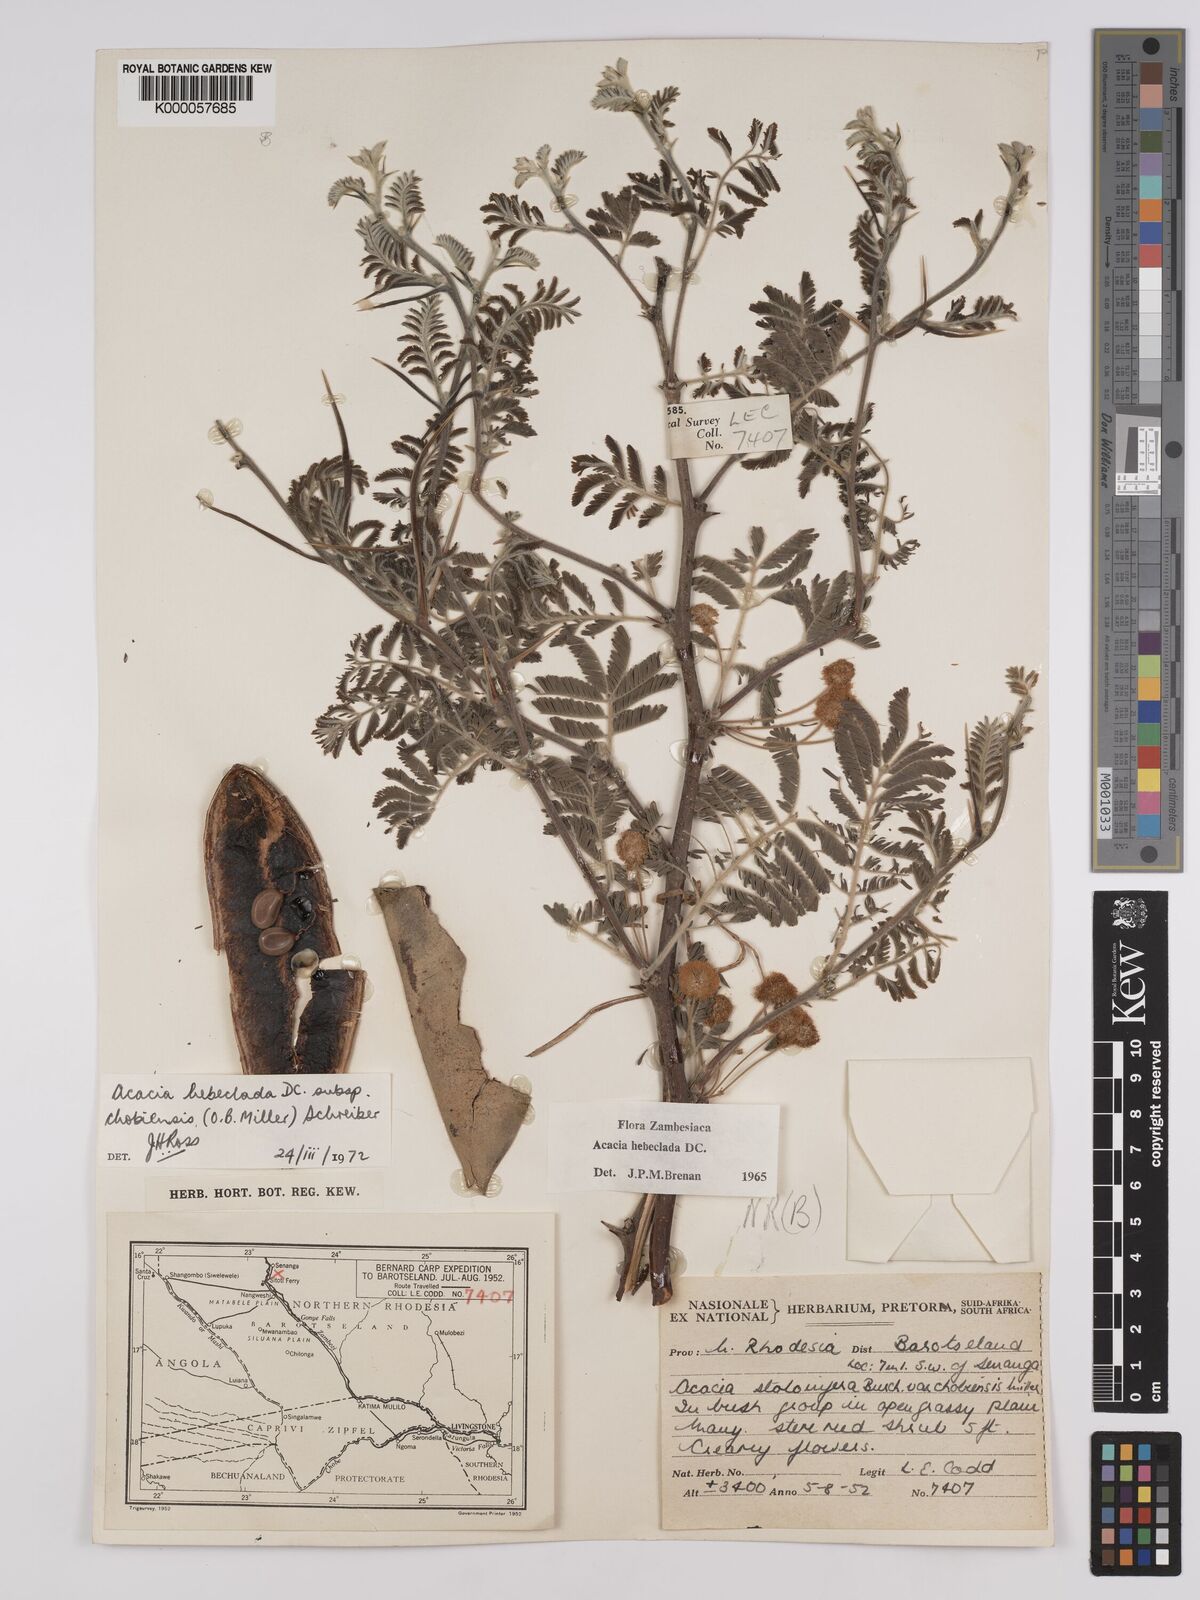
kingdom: Plantae
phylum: Tracheophyta
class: Magnoliopsida
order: Fabales
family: Fabaceae
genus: Vachellia
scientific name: Vachellia hebeclada
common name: Candle thorn
